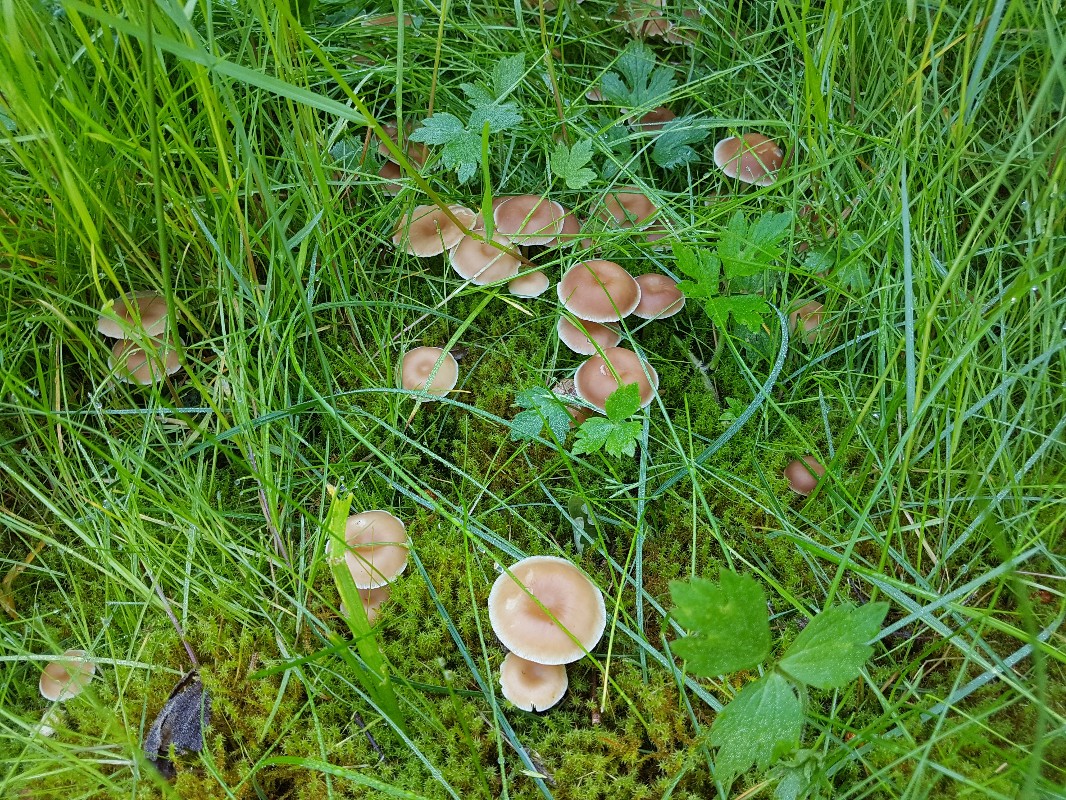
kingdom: Fungi
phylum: Basidiomycota
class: Agaricomycetes
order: Agaricales
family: Omphalotaceae
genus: Gymnopus
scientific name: Gymnopus ocior
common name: mørk fladhat
